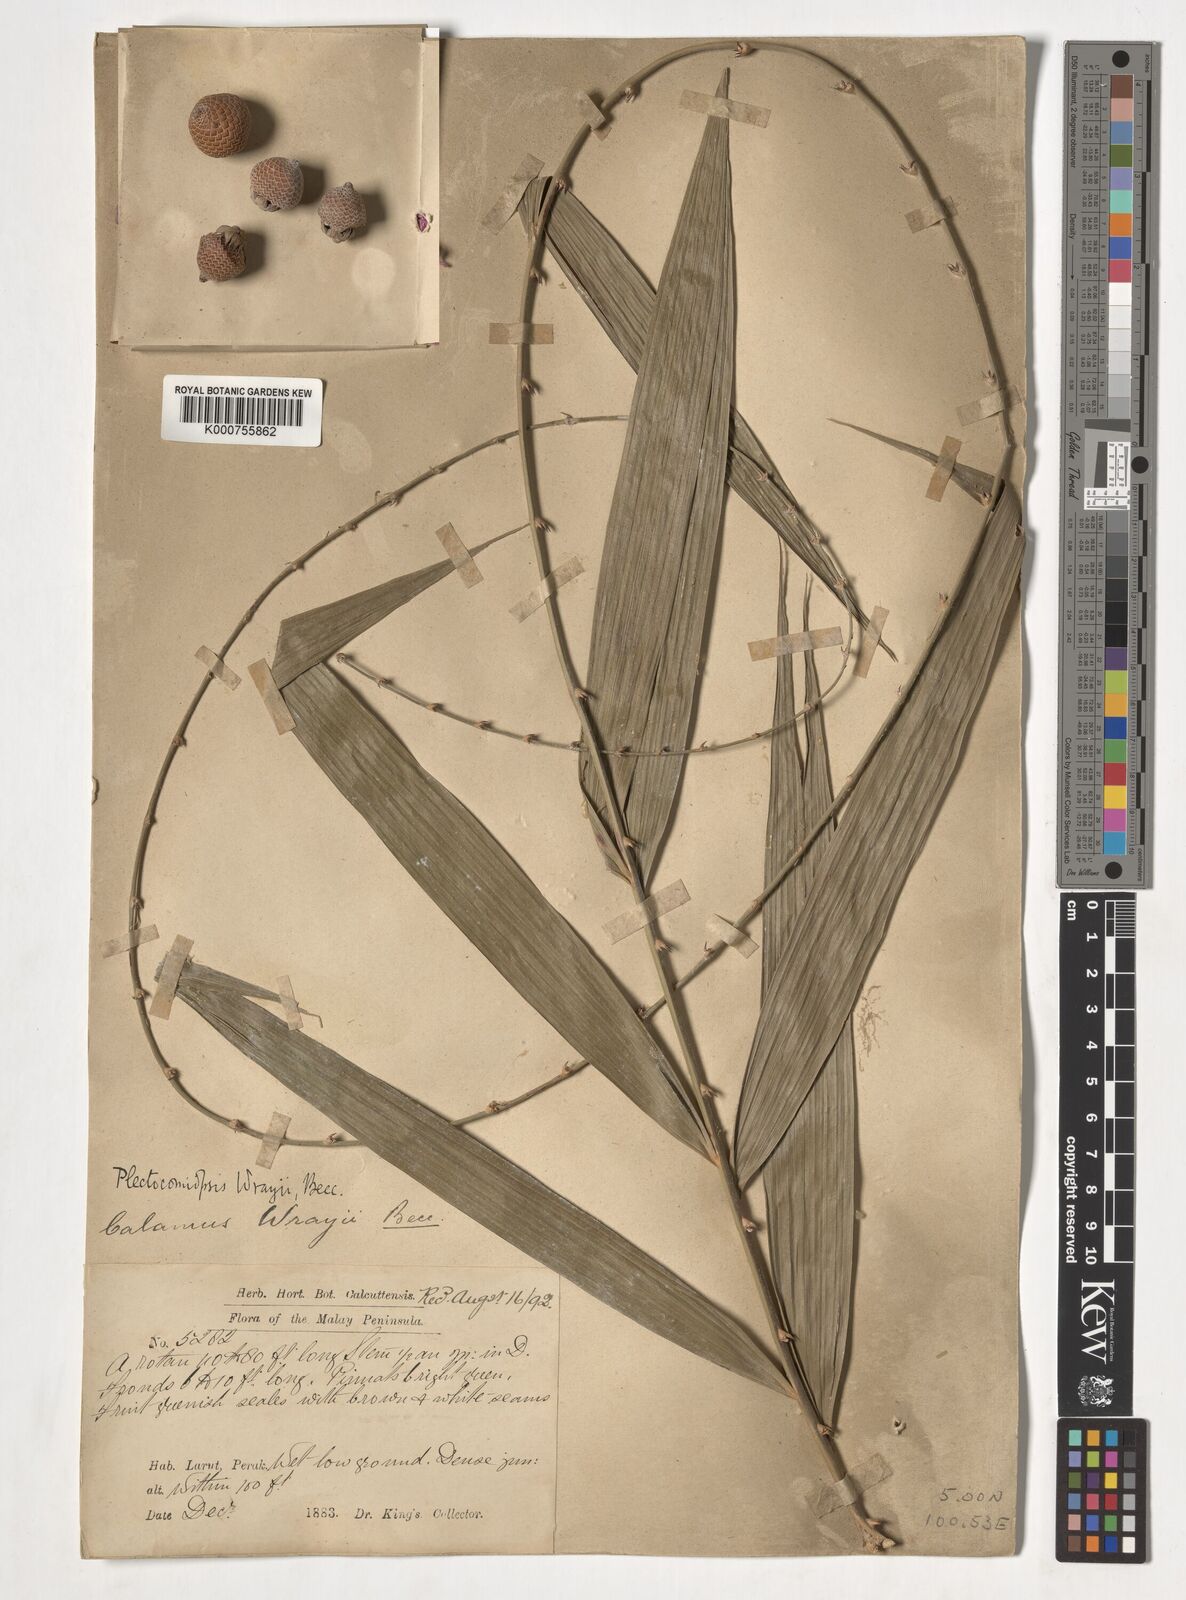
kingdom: Plantae
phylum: Tracheophyta
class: Liliopsida
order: Arecales
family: Arecaceae
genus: Plectocomiopsis
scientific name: Plectocomiopsis wrayi
